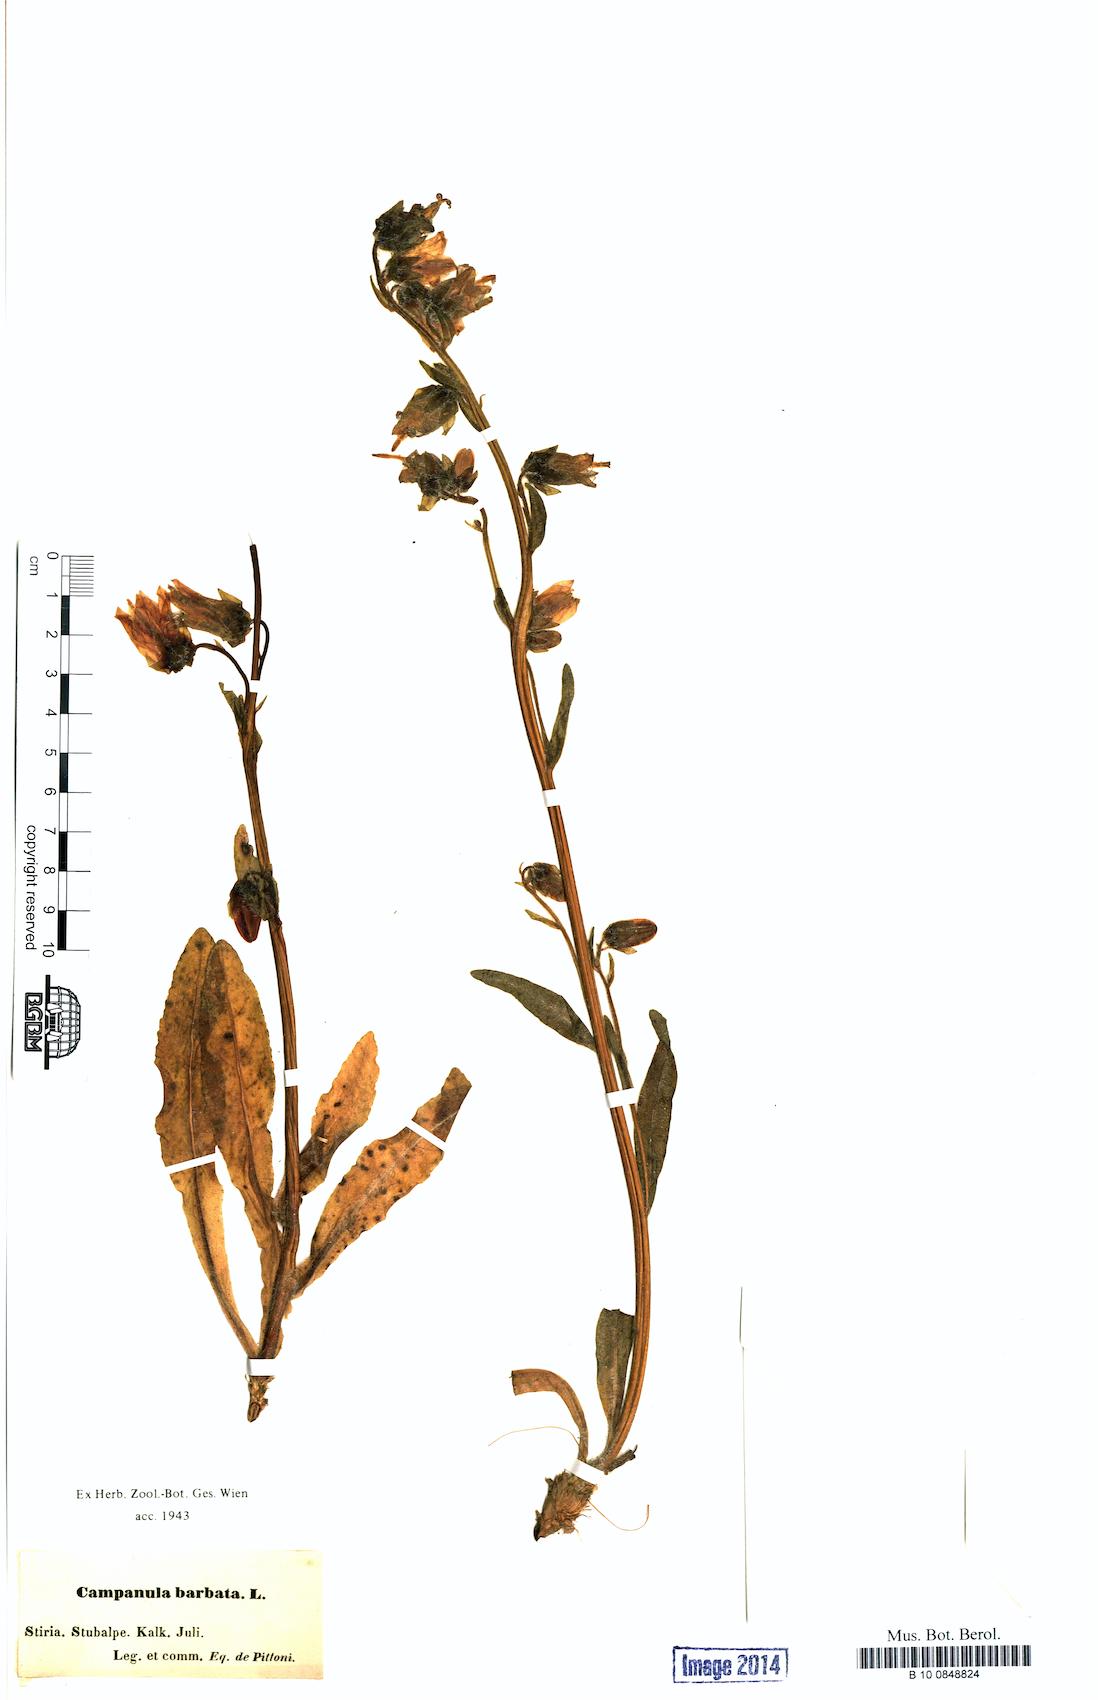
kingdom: Plantae
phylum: Tracheophyta
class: Magnoliopsida
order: Asterales
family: Campanulaceae
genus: Campanula
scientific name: Campanula barbata
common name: Bearded bellflower
